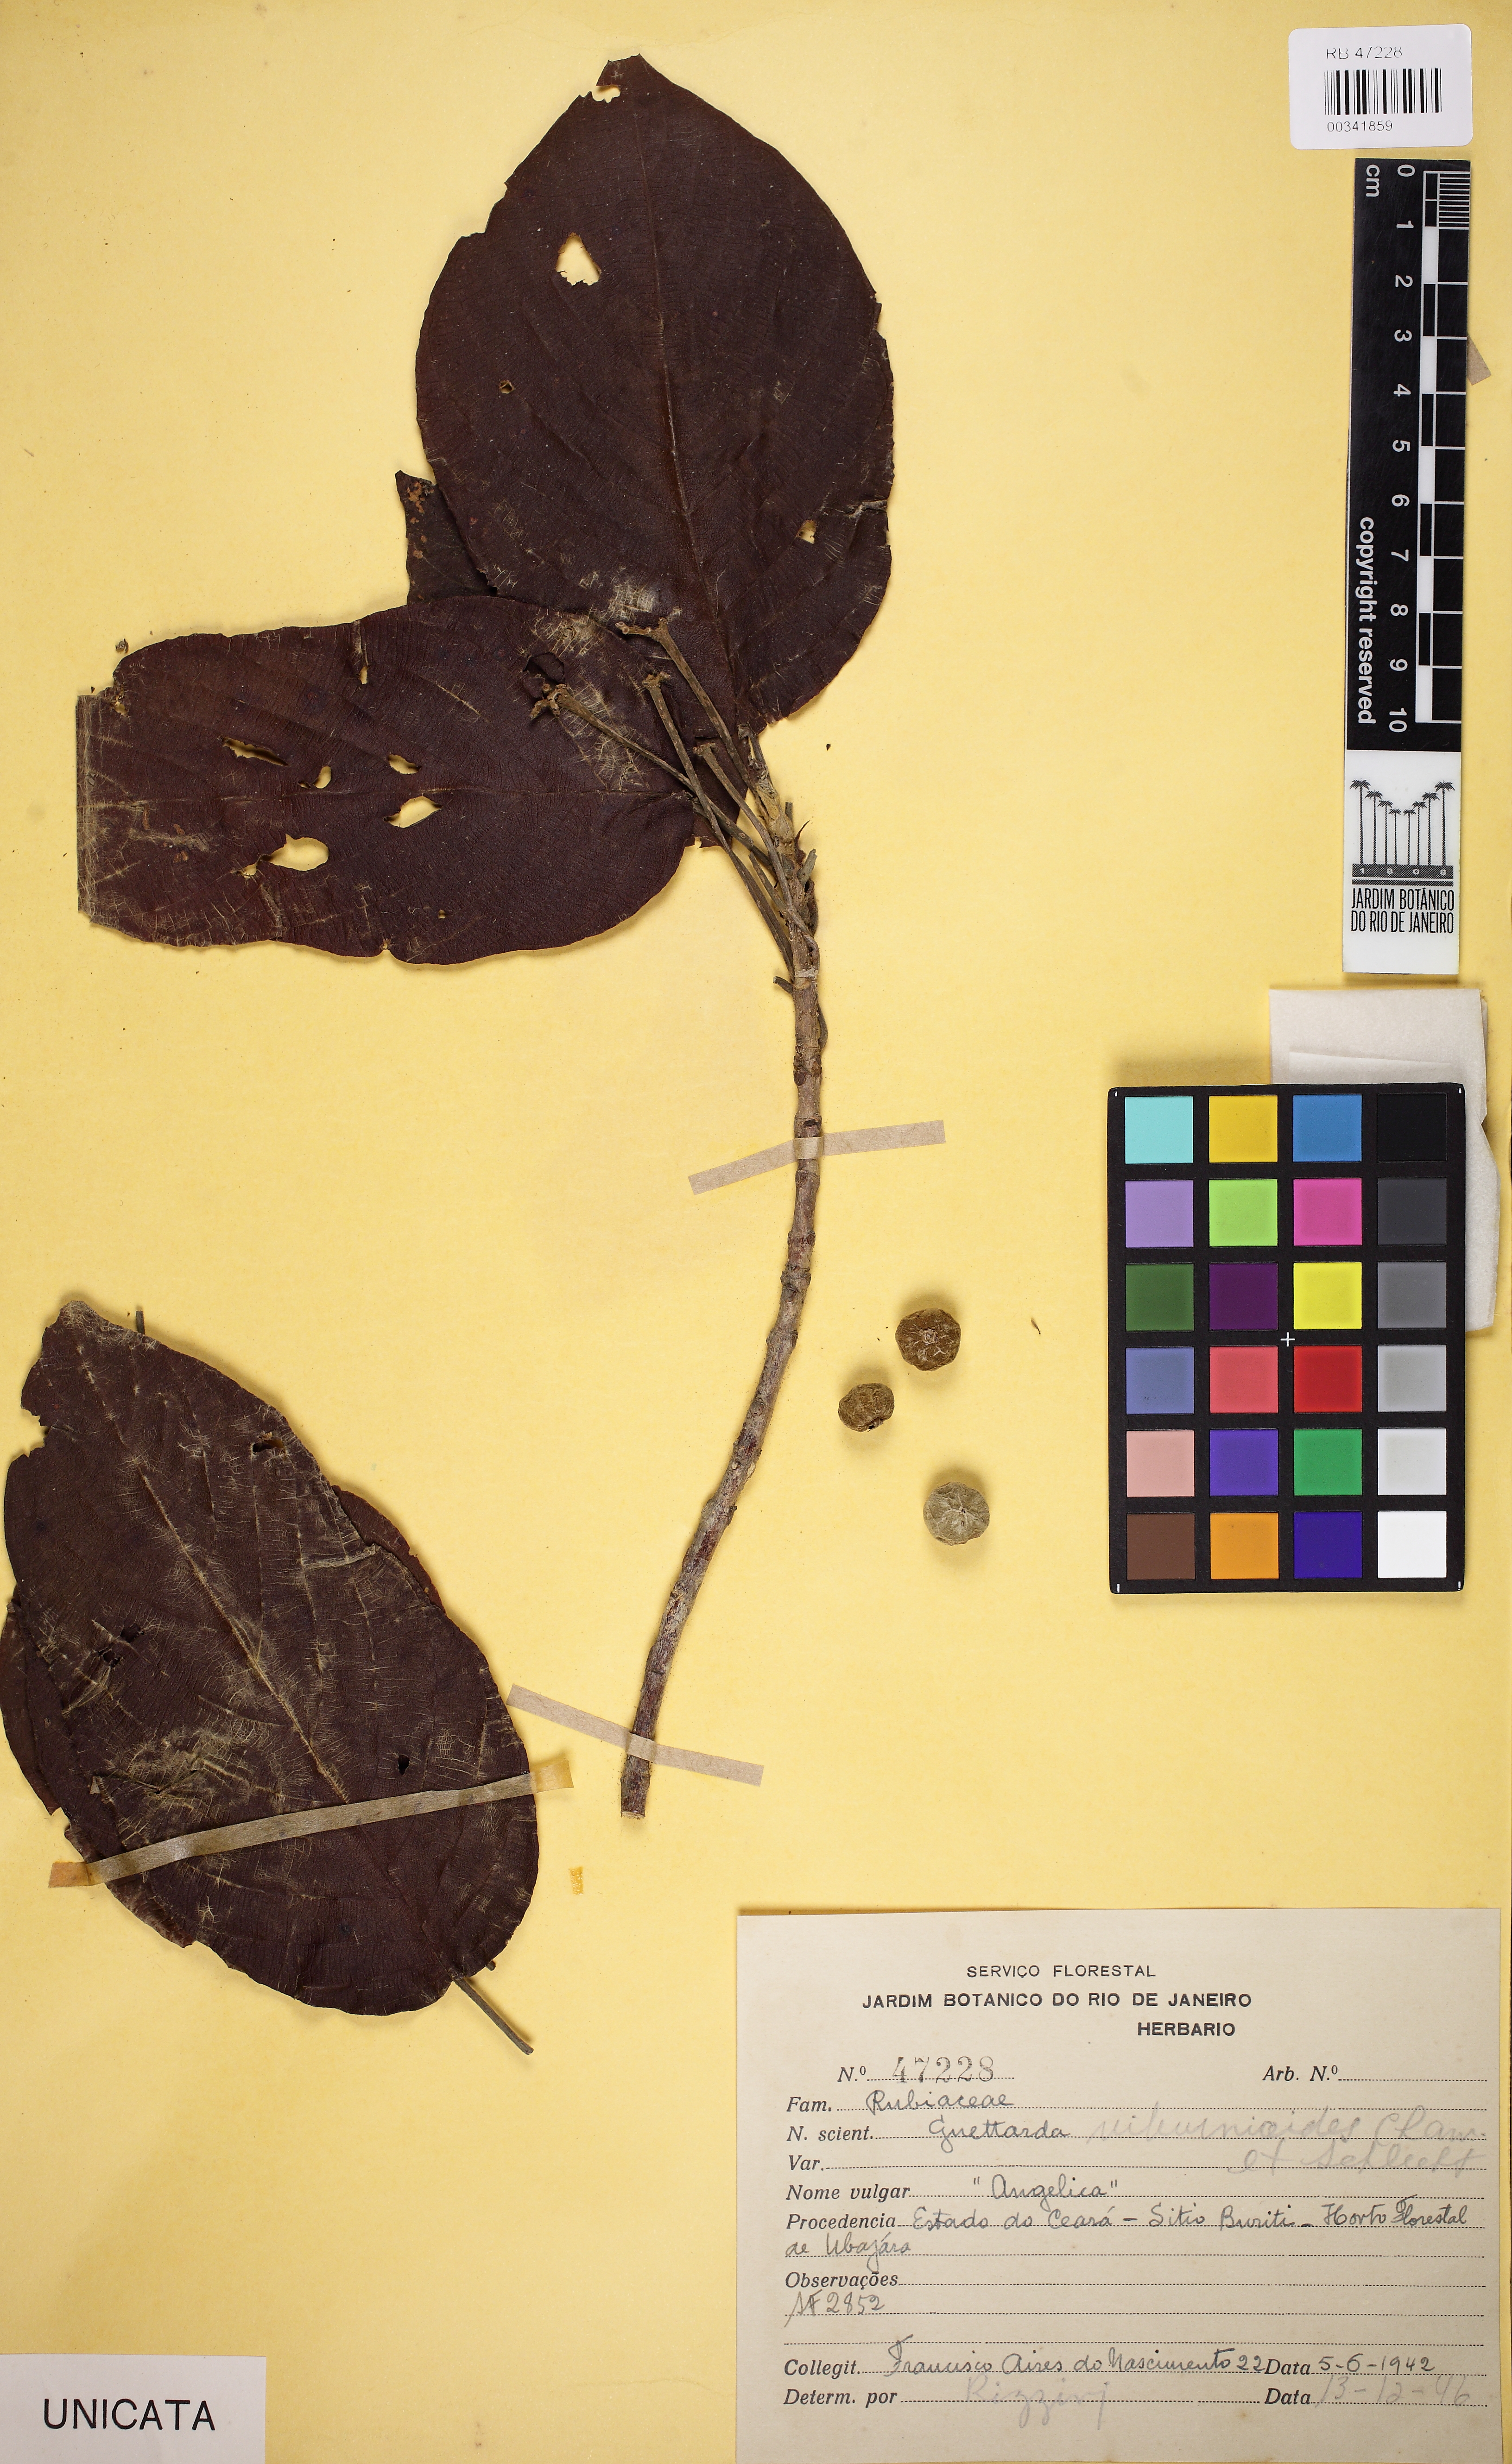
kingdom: Plantae
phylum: Tracheophyta
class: Magnoliopsida
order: Gentianales
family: Rubiaceae
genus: Guettarda
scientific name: Guettarda viburnoides
